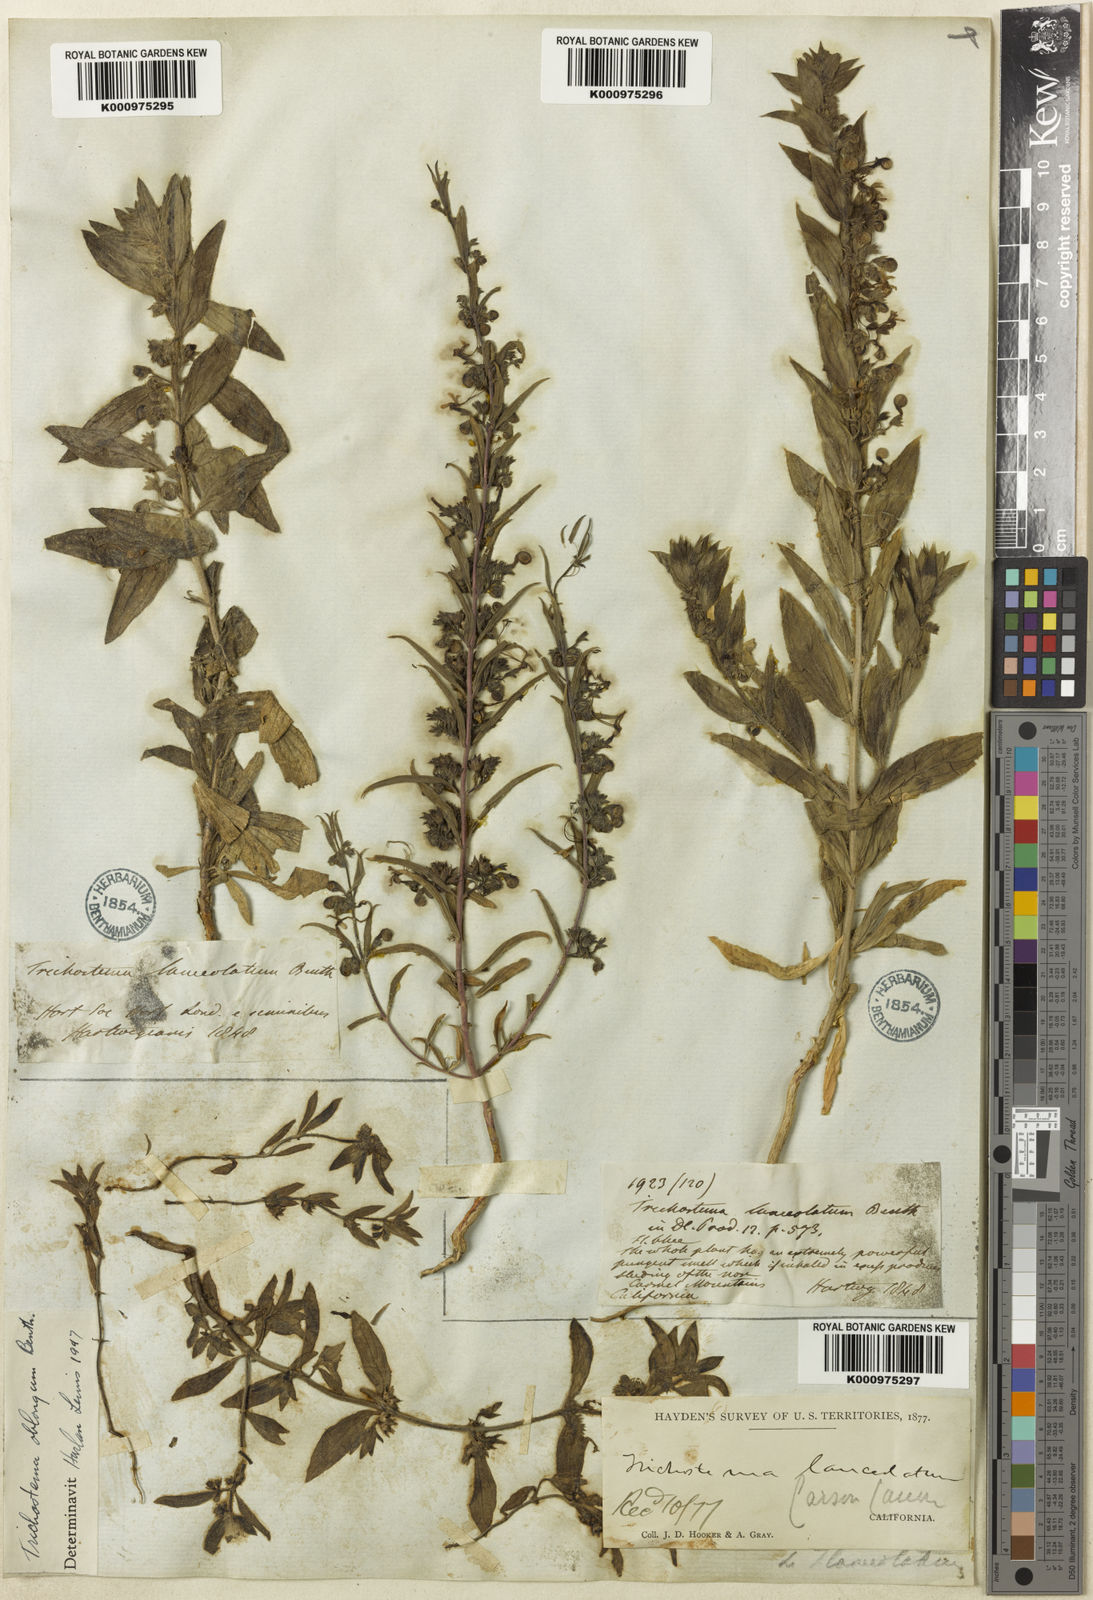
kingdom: Plantae
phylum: Tracheophyta
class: Magnoliopsida
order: Lamiales
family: Lamiaceae
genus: Trichostema
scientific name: Trichostema lanceolatum
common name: Vinegar-weed
